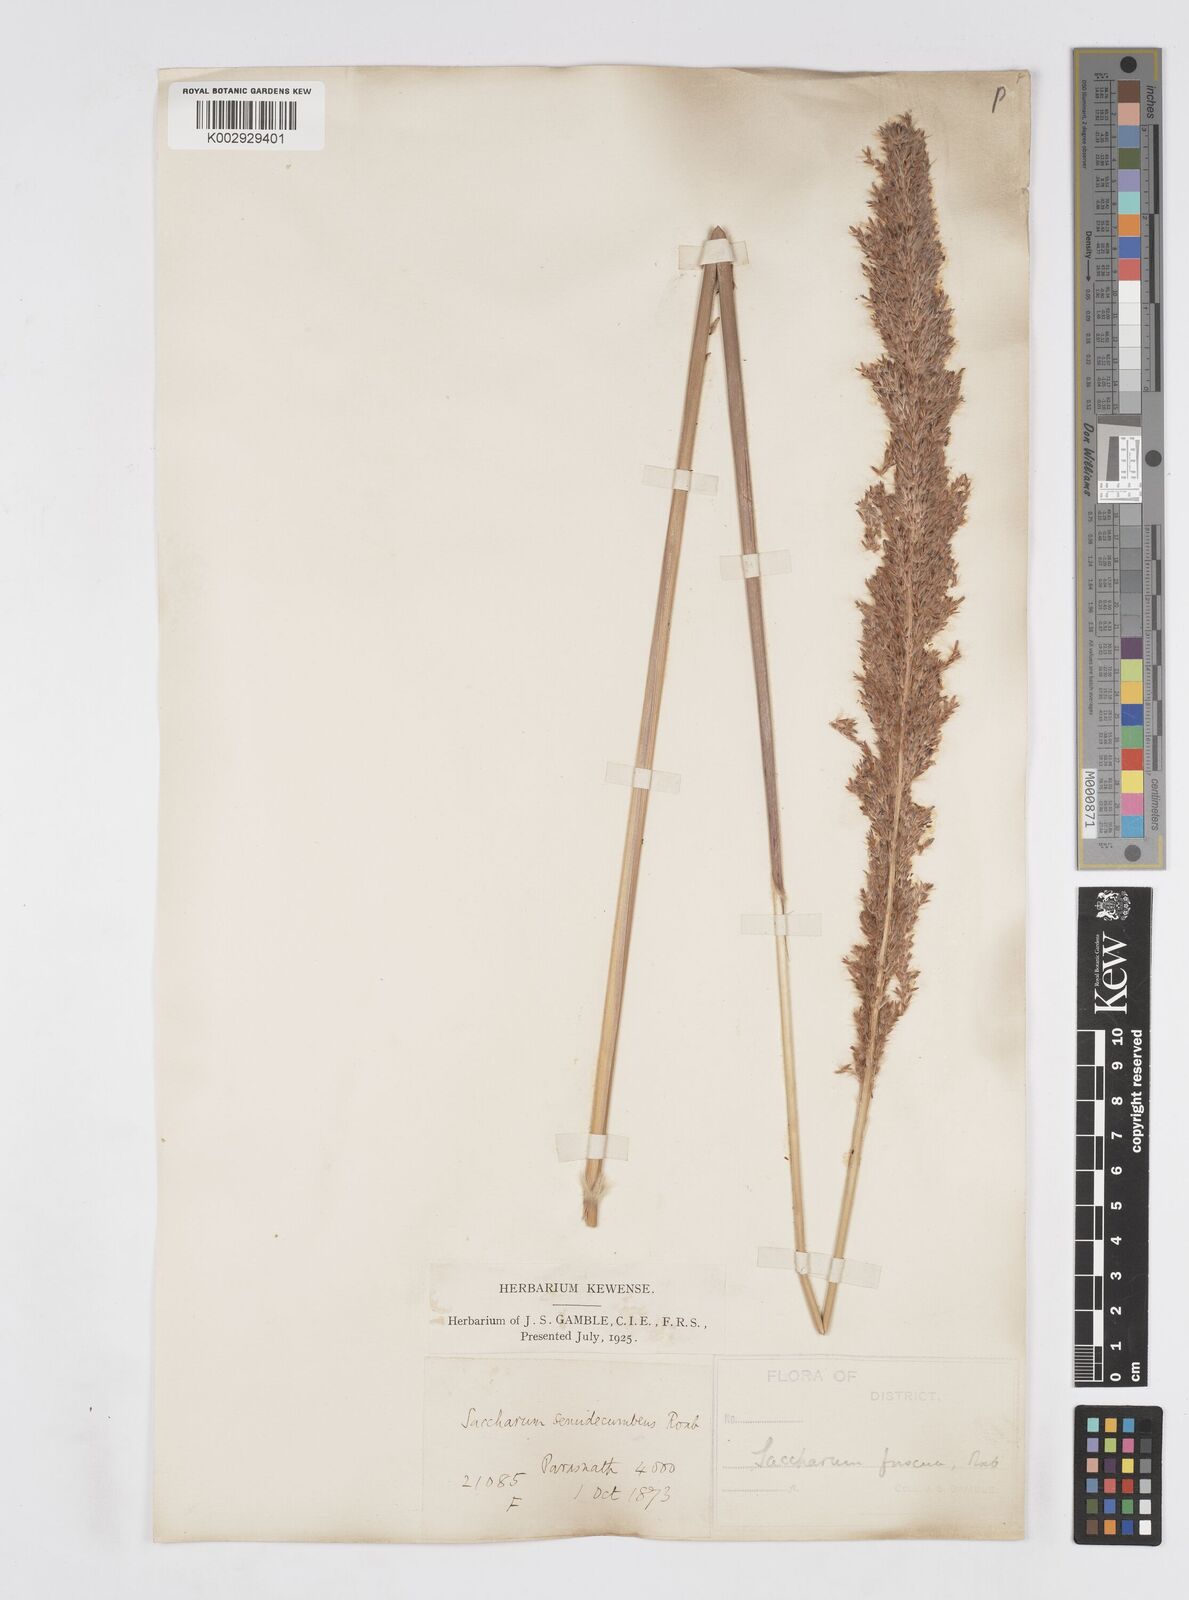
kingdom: Plantae
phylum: Tracheophyta
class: Liliopsida
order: Poales
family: Poaceae
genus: Narenga
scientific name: Narenga porphyrocoma
